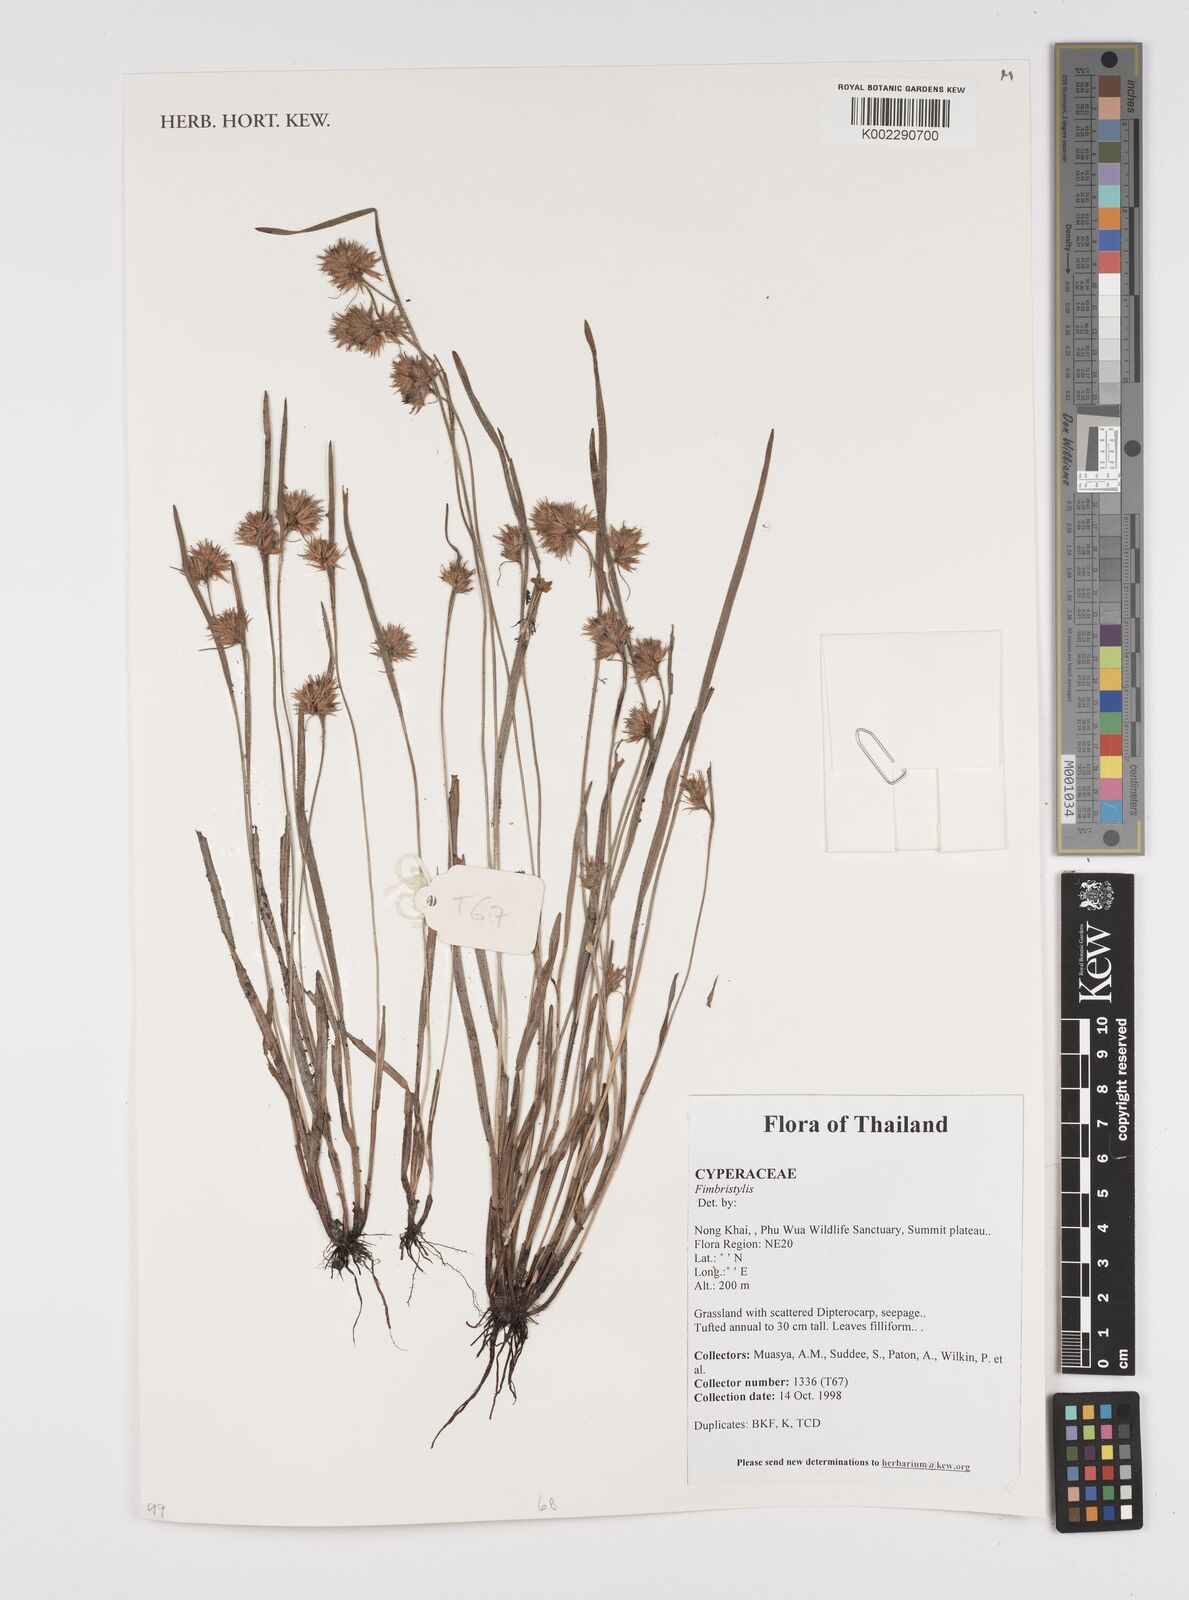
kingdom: Plantae
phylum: Tracheophyta
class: Liliopsida
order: Poales
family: Cyperaceae
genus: Fimbristylis
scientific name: Fimbristylis
